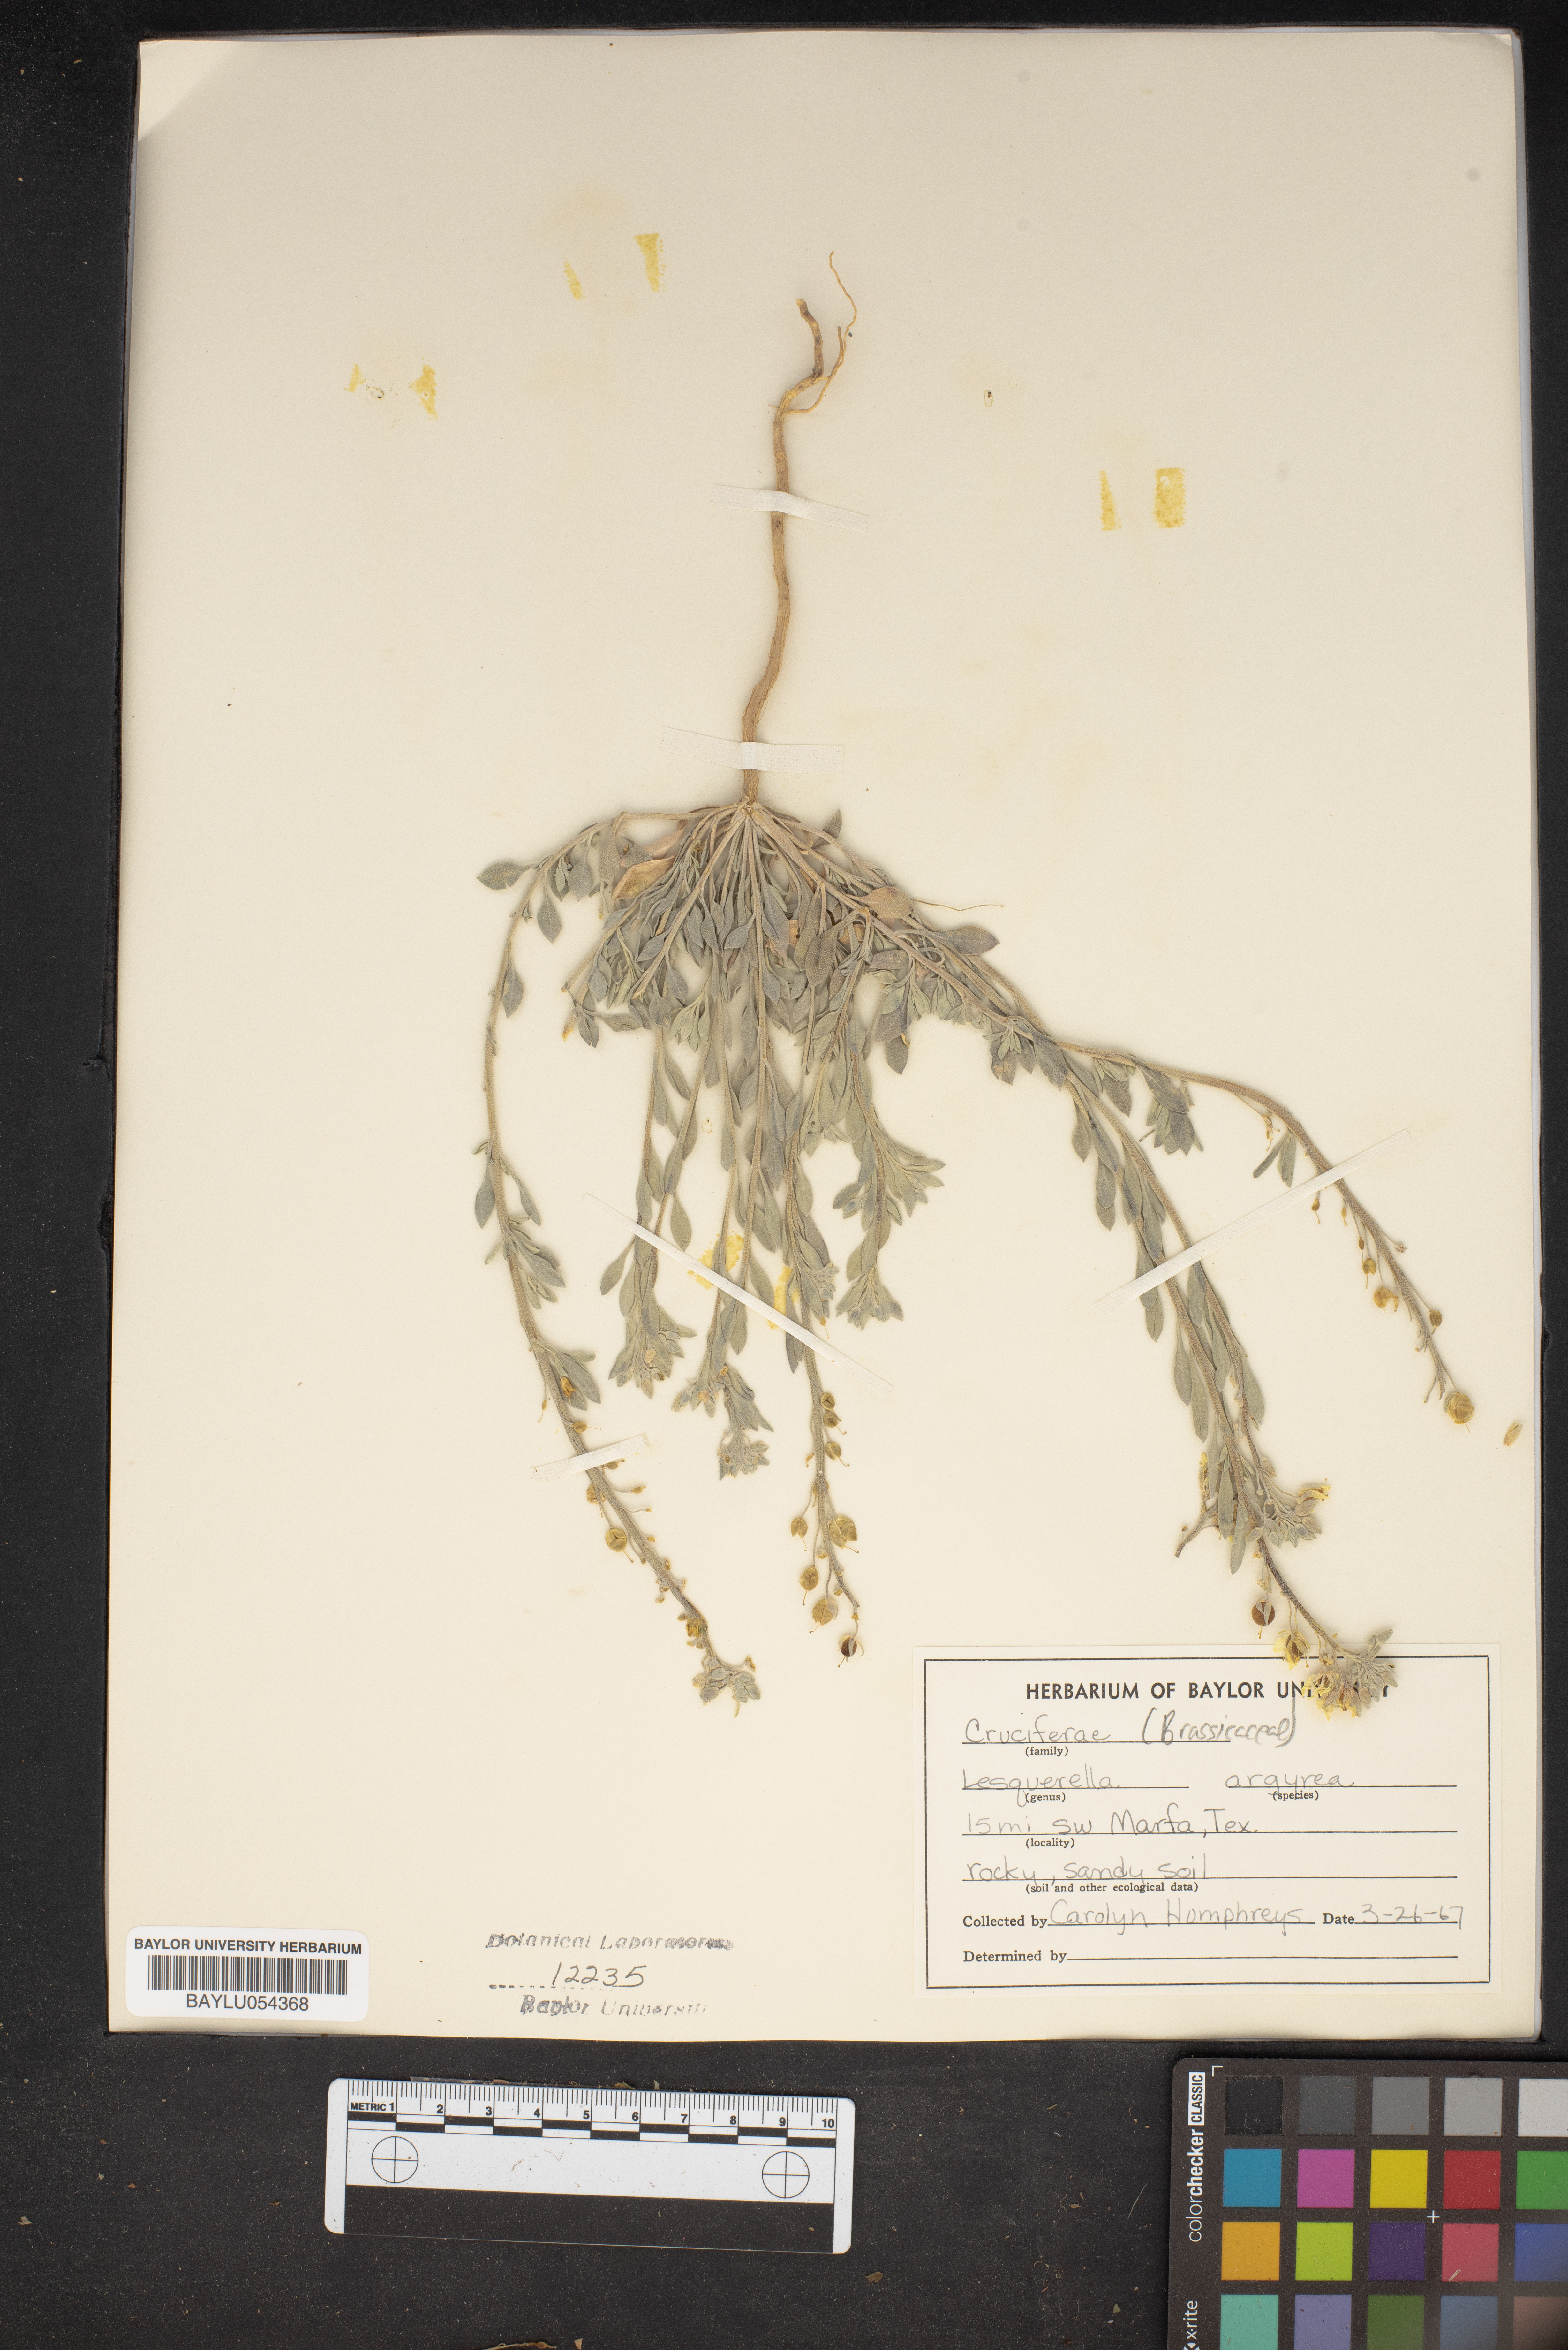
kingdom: Plantae
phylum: Tracheophyta
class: Magnoliopsida
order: Brassicales
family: Brassicaceae
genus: Physaria
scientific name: Physaria argyraea
